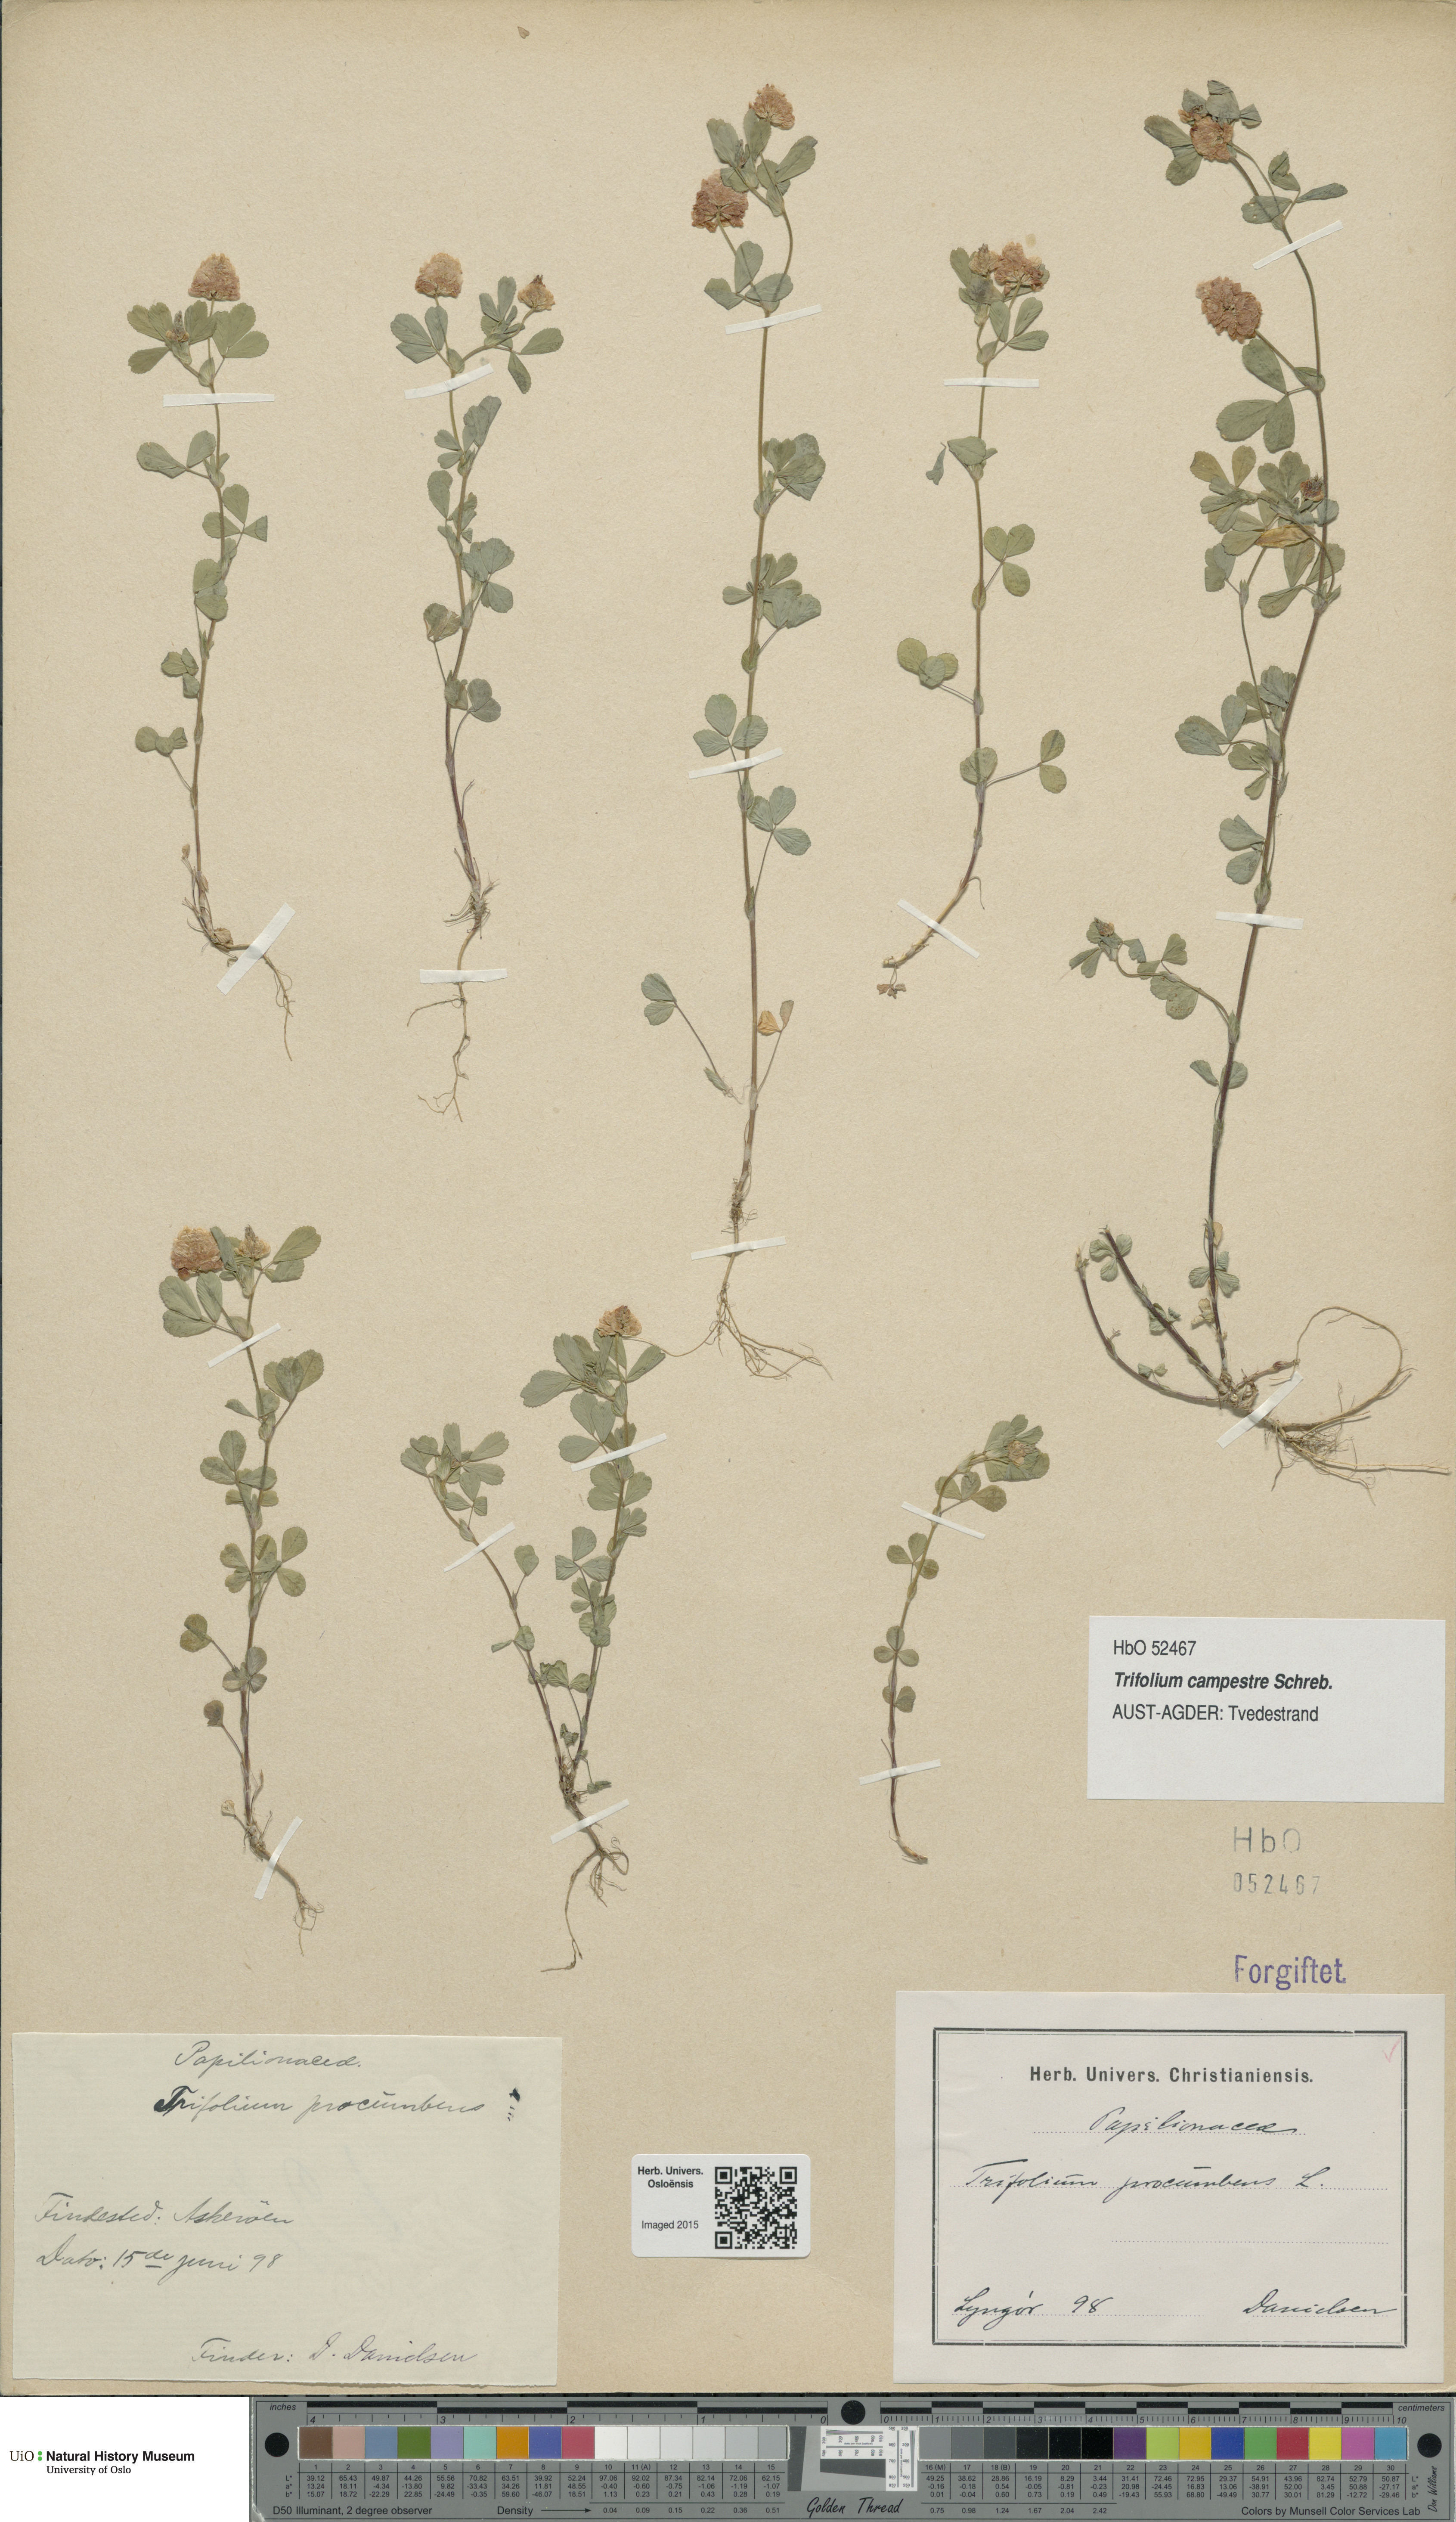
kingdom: Plantae
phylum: Tracheophyta
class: Magnoliopsida
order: Fabales
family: Fabaceae
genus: Trifolium
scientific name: Trifolium campestre
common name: Field clover
